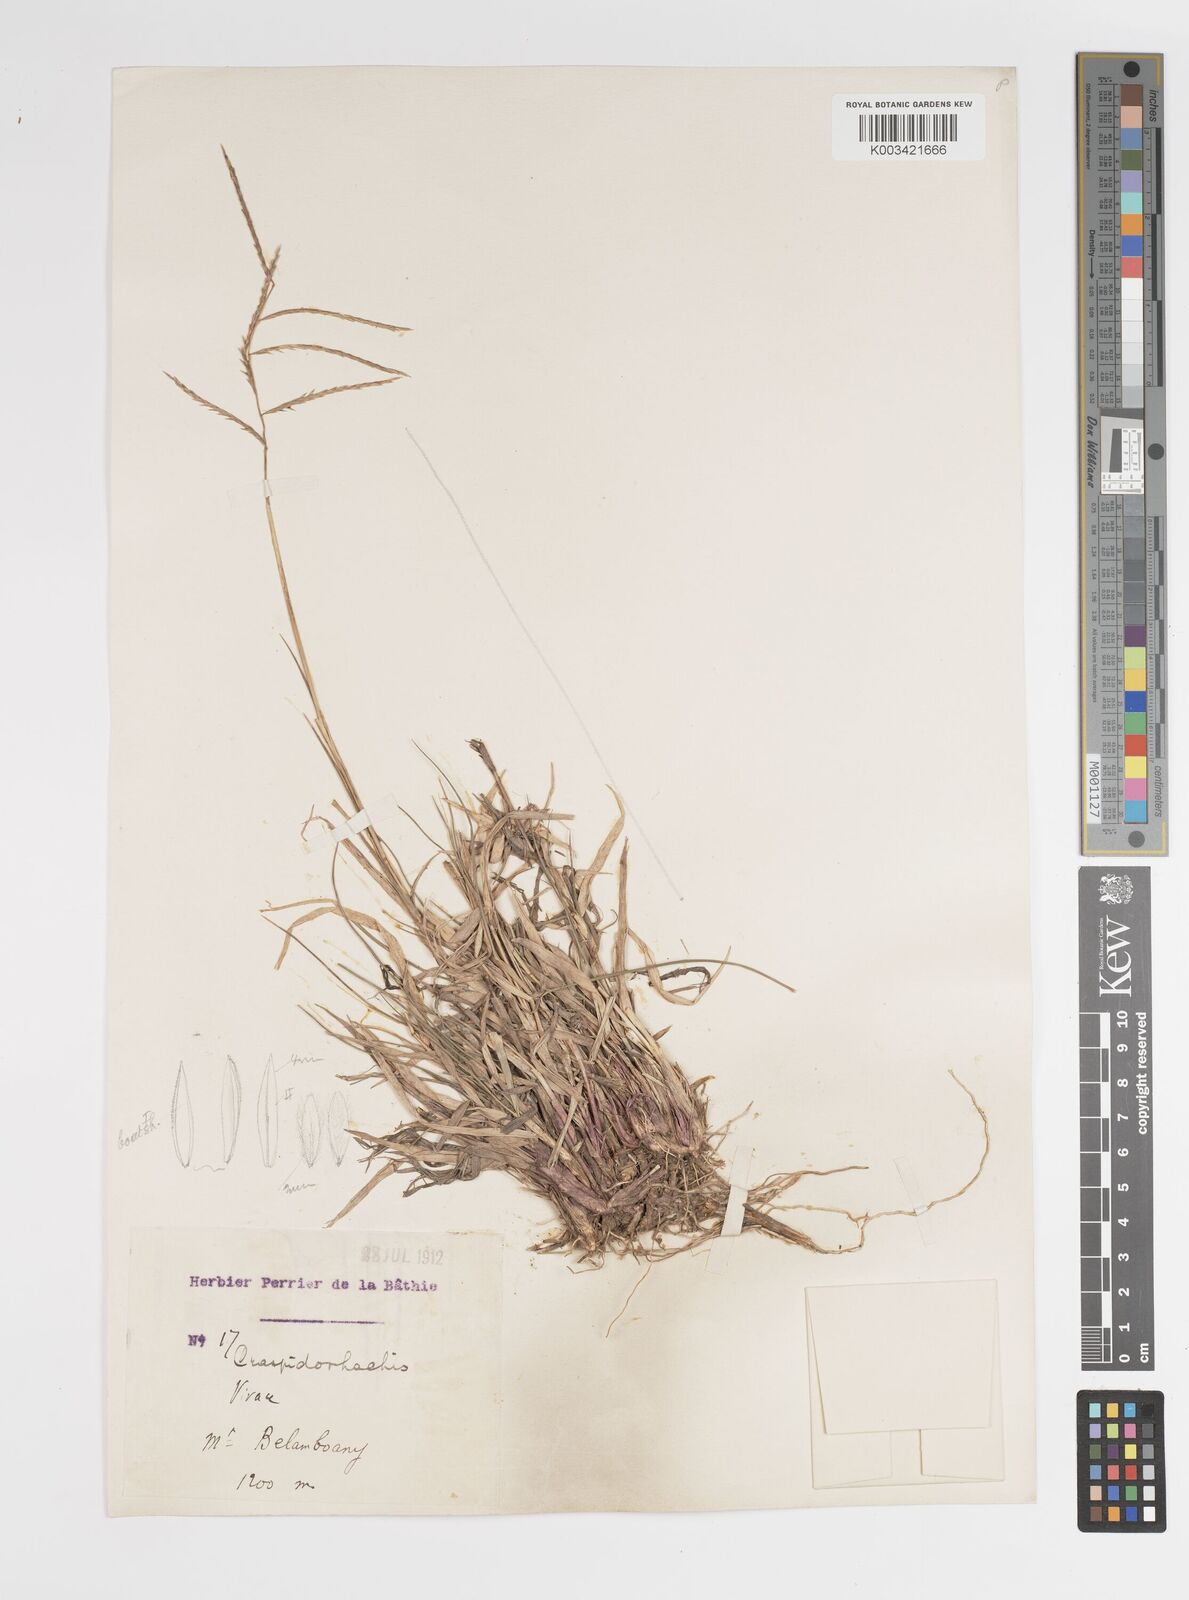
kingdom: Plantae
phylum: Tracheophyta
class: Liliopsida
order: Poales
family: Poaceae
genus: Craspedorhachis
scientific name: Craspedorhachis africana
